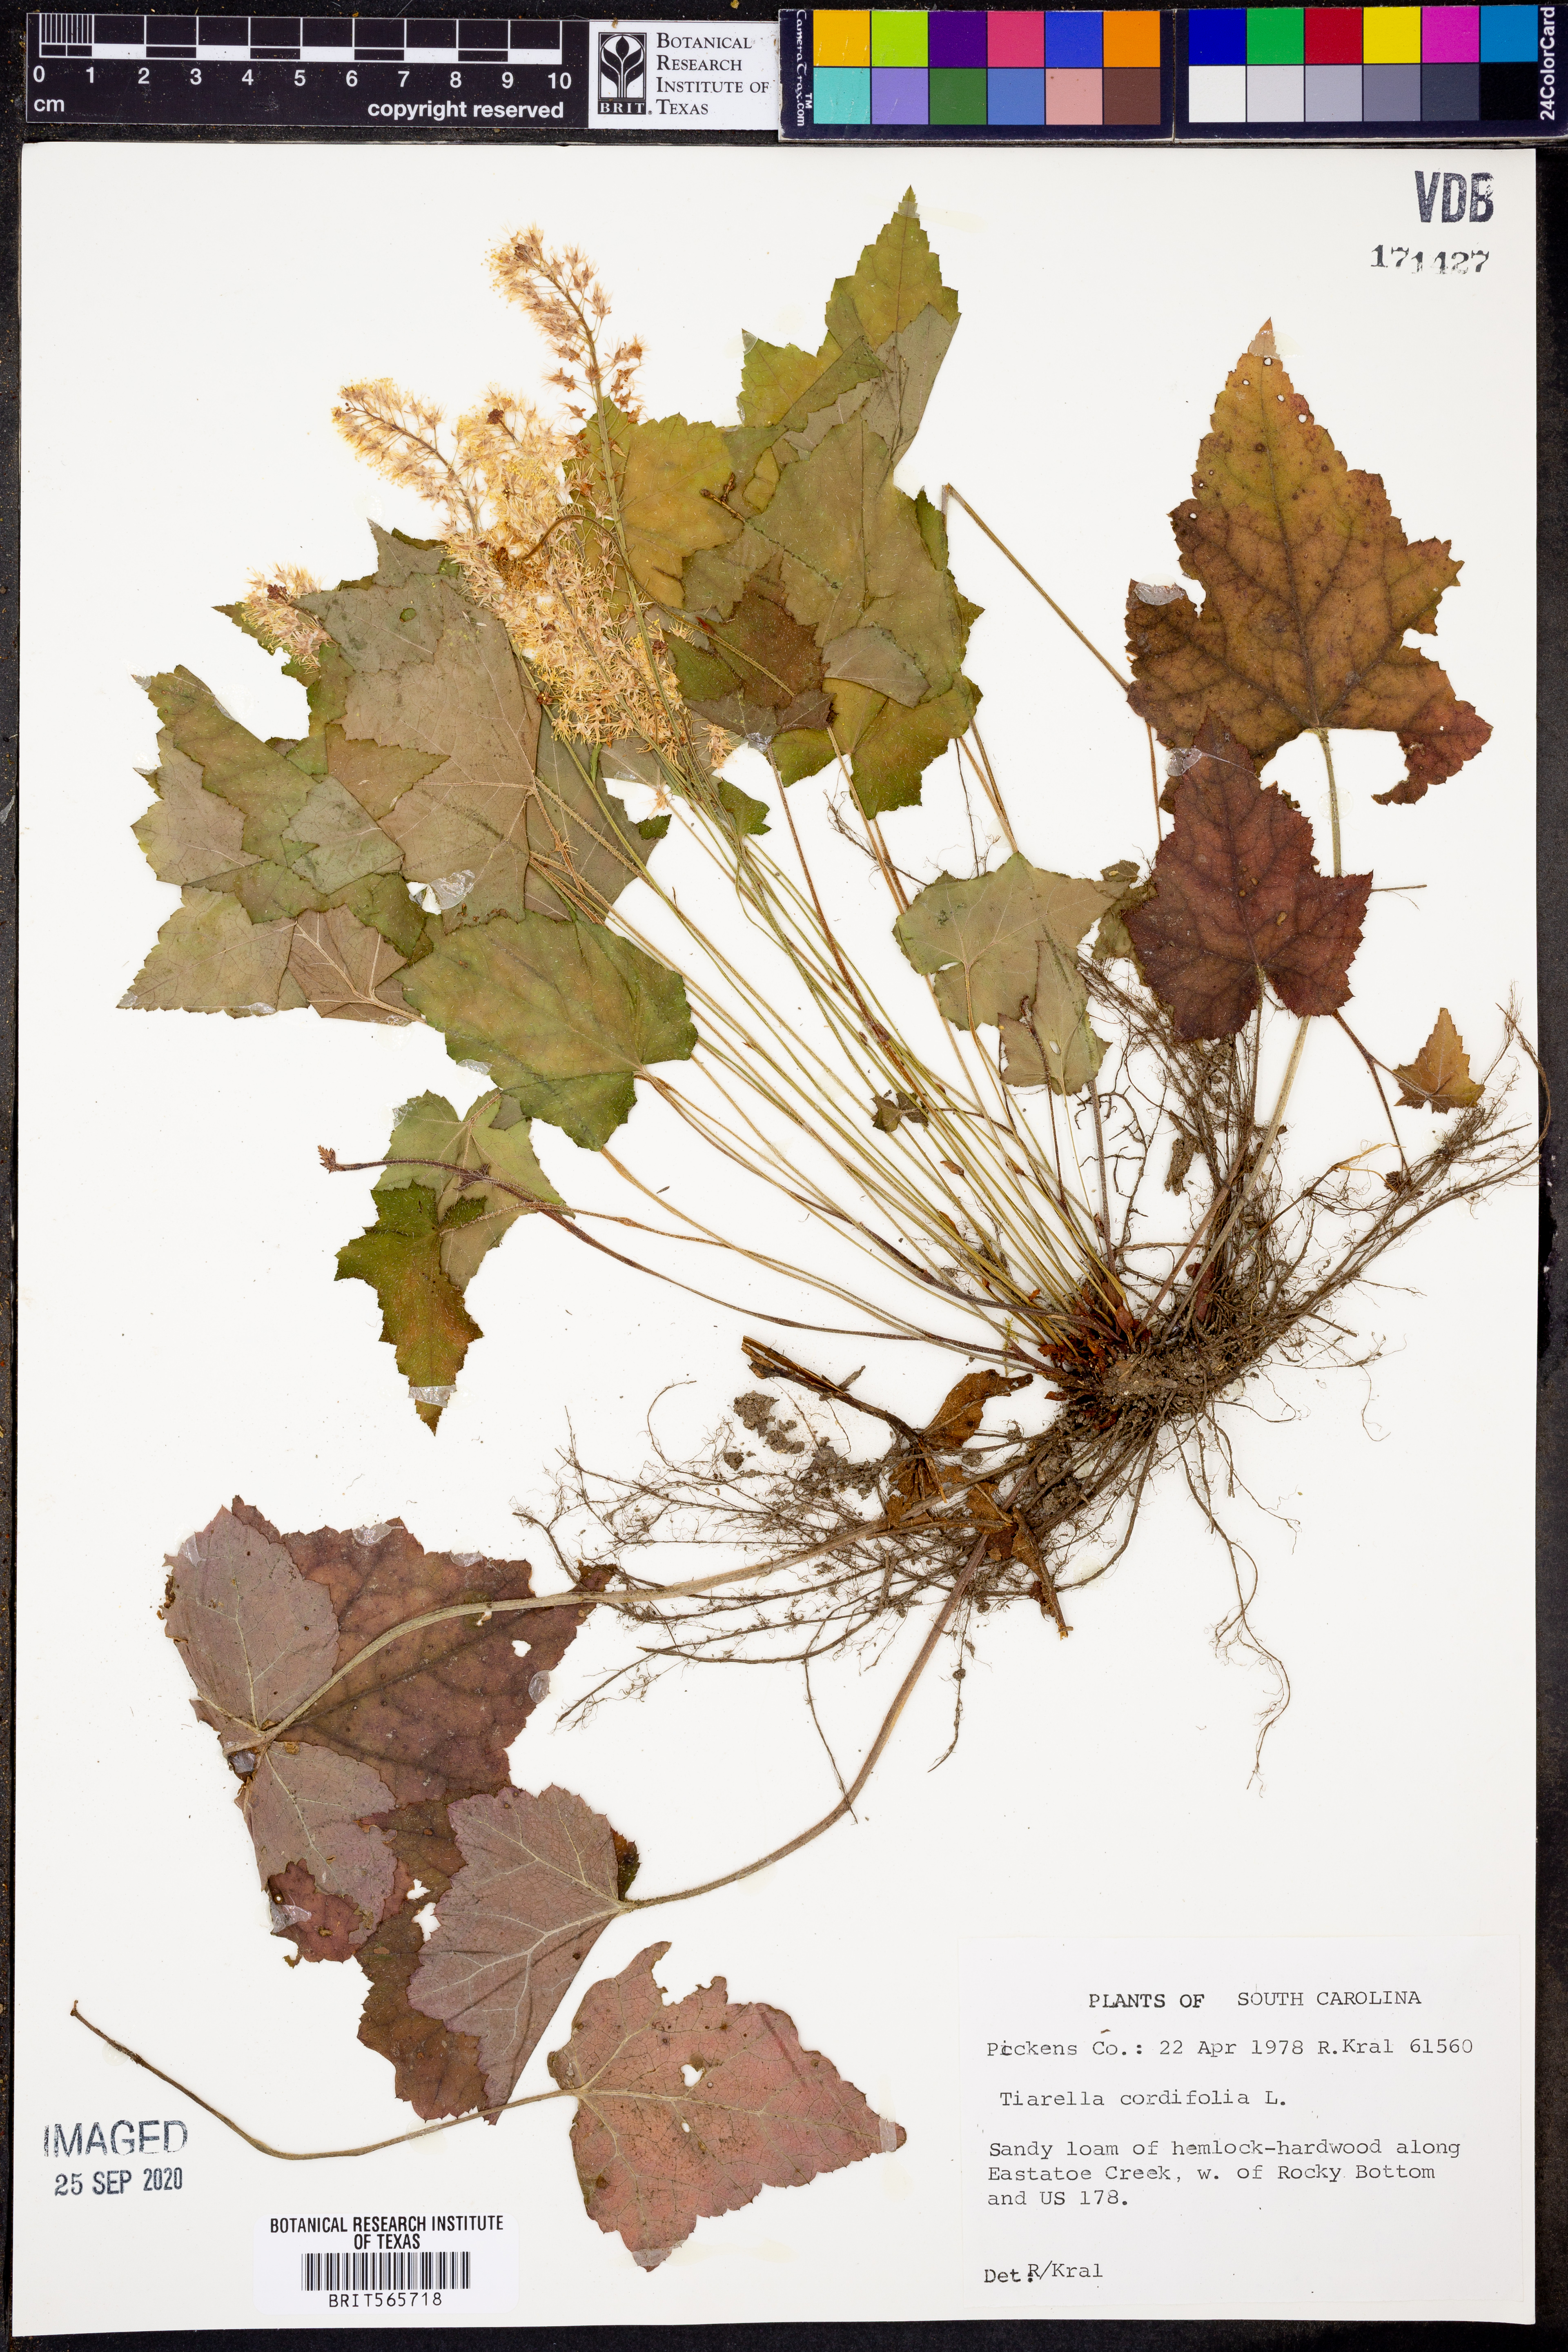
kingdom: Plantae
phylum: Tracheophyta
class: Magnoliopsida
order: Saxifragales
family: Saxifragaceae
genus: Tiarella
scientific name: Tiarella cordifolia
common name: Foamflower
